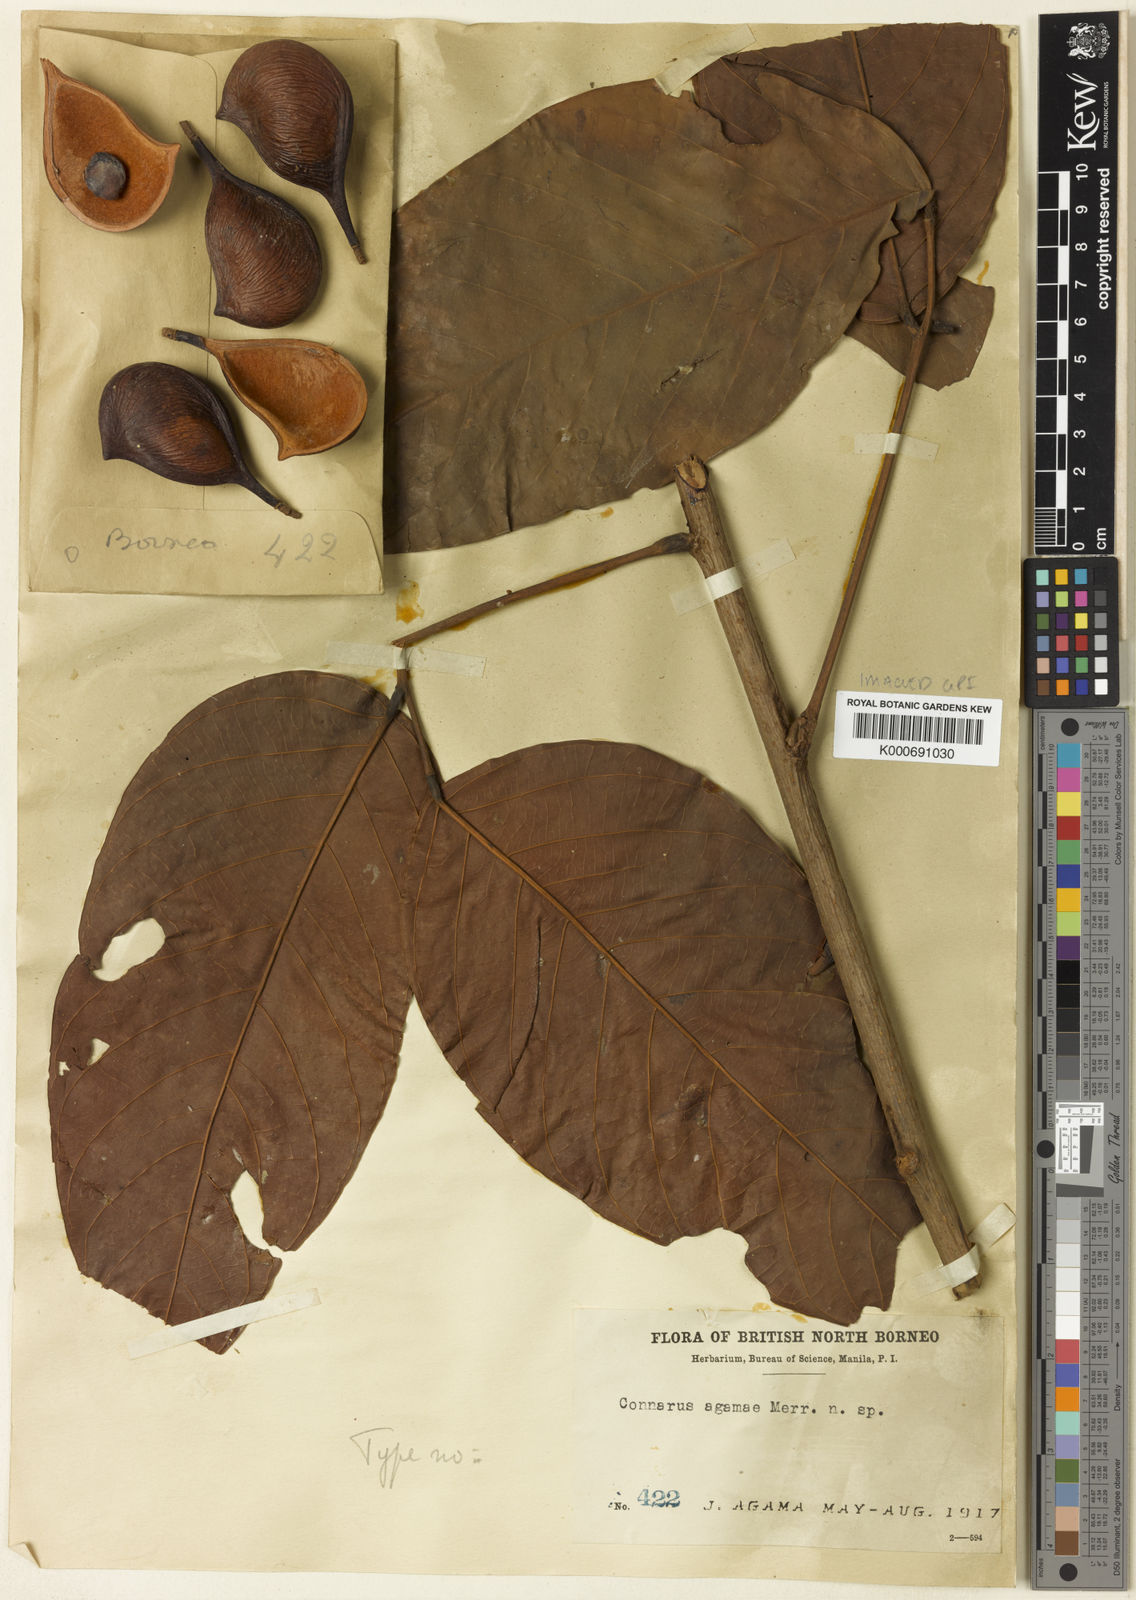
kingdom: Plantae
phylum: Tracheophyta
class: Magnoliopsida
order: Oxalidales
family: Connaraceae
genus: Connarus
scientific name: Connarus agamae
